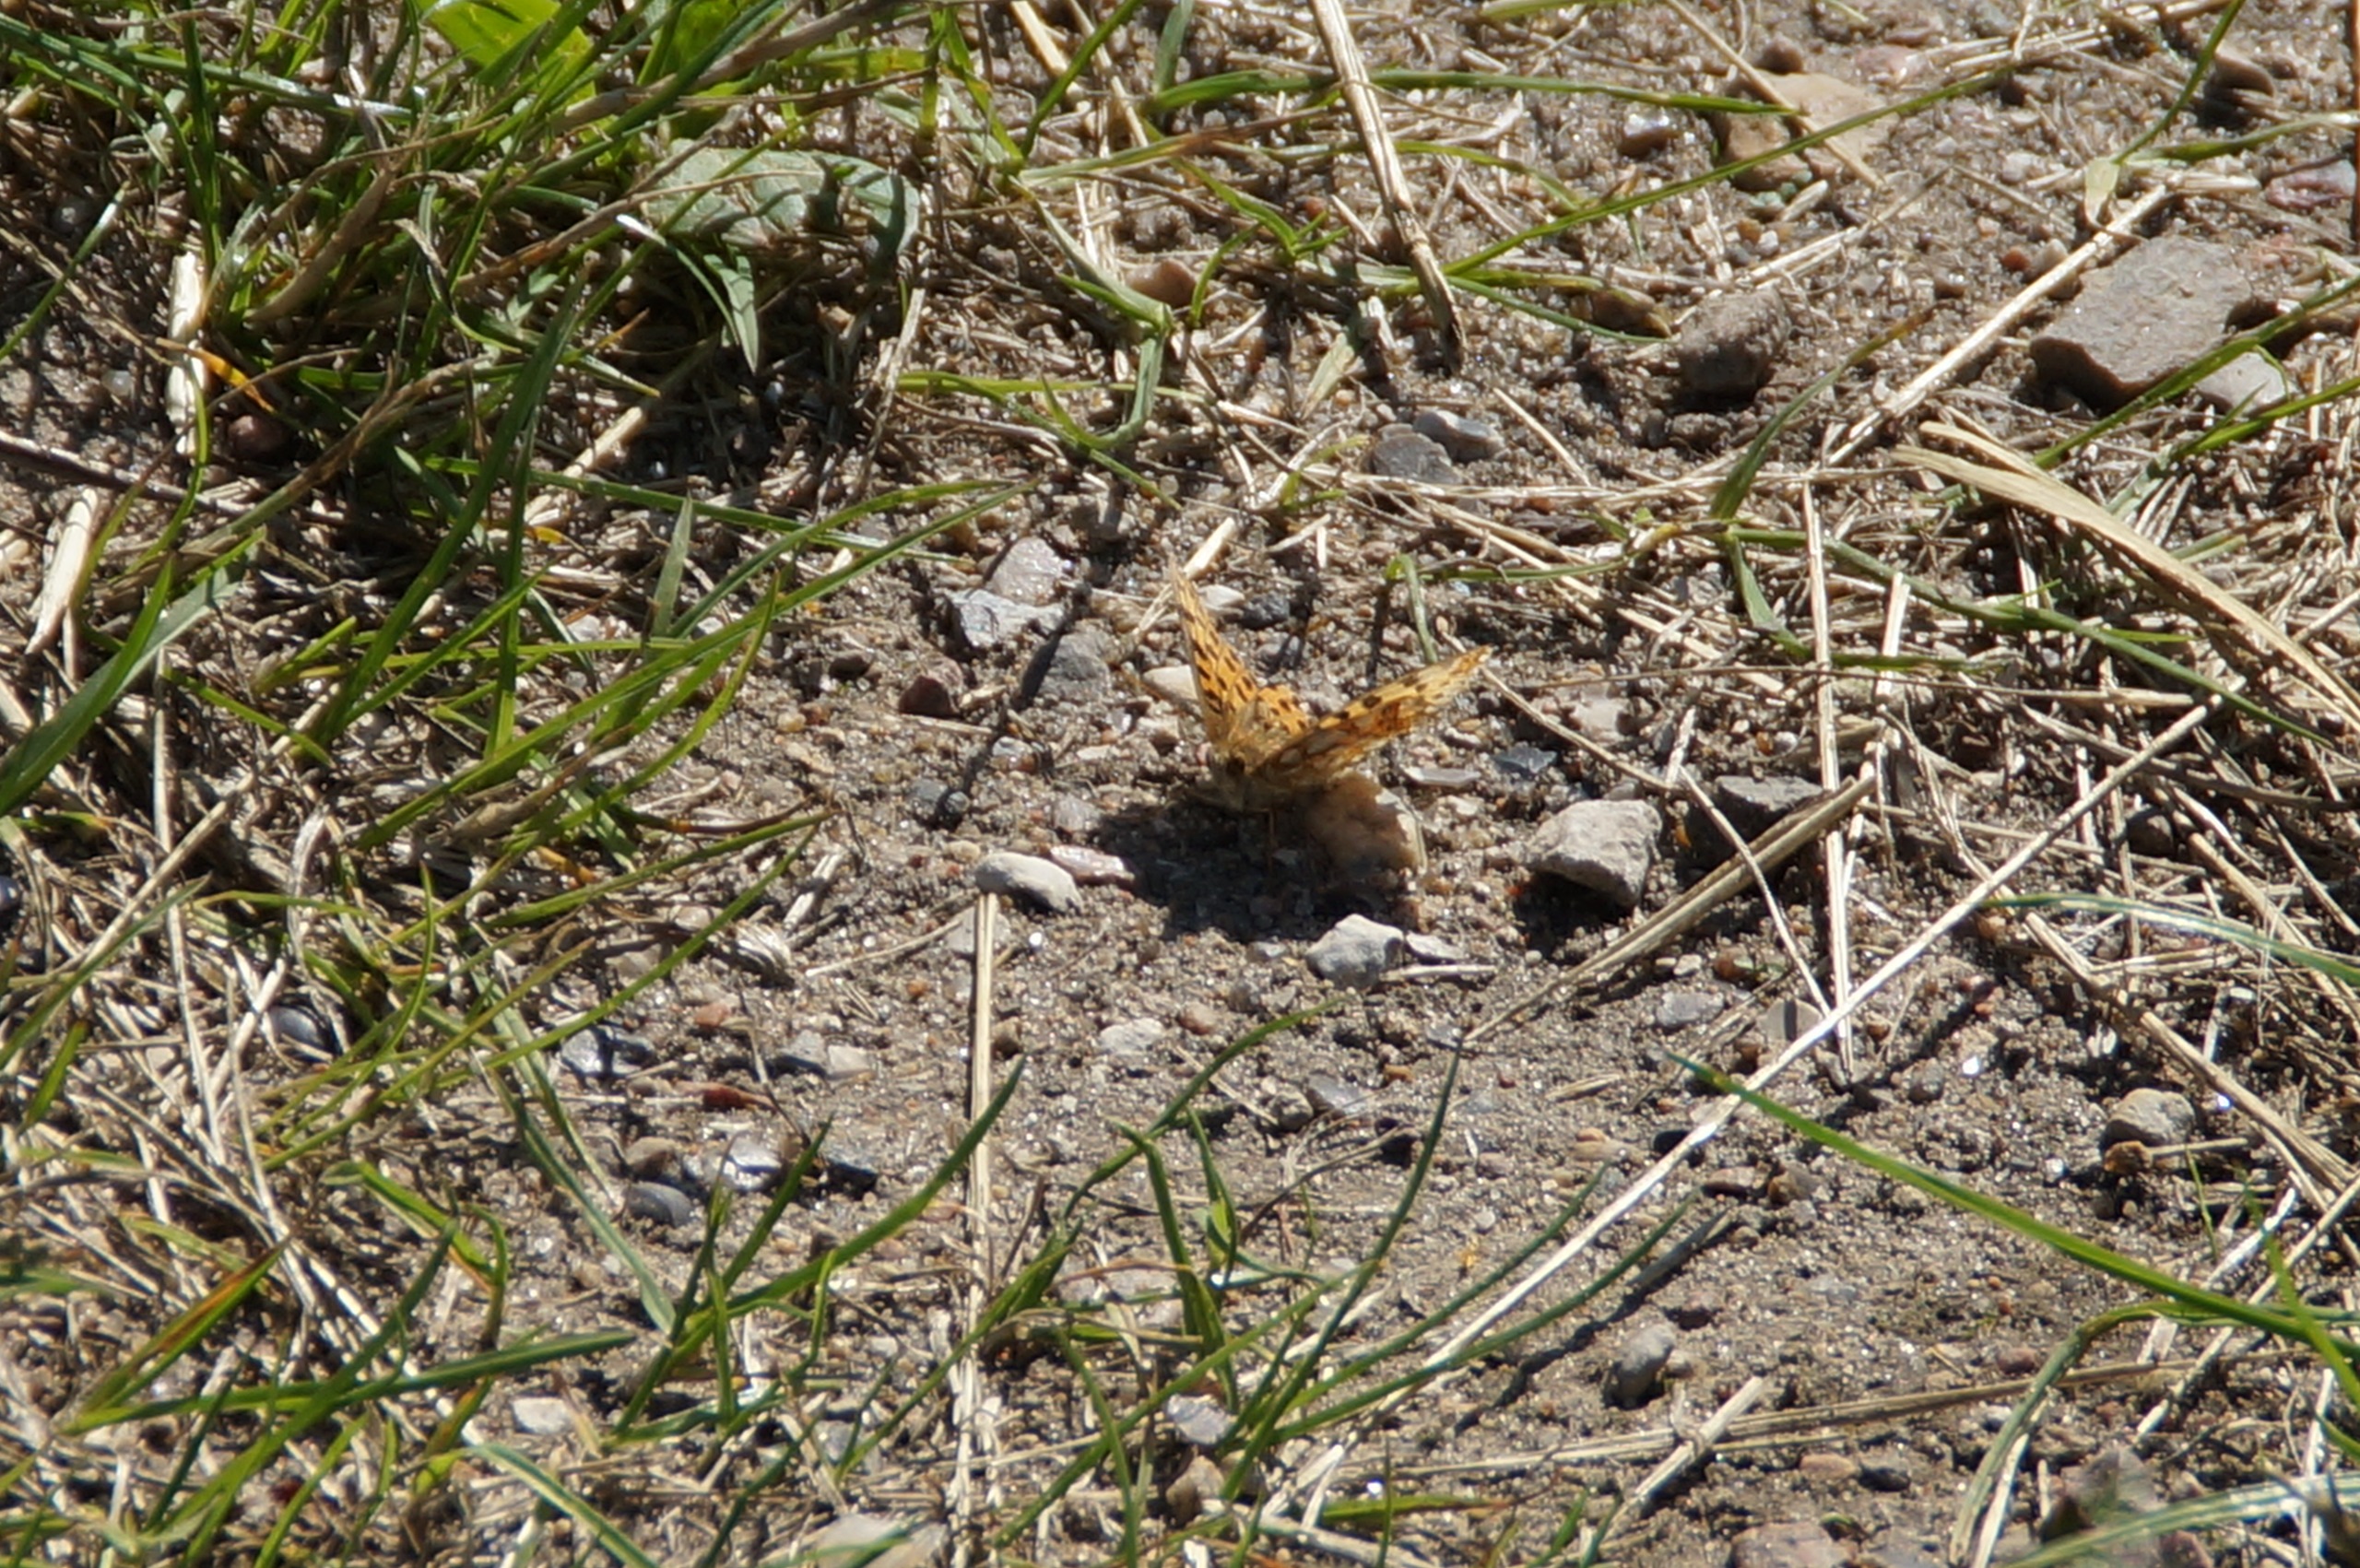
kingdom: Animalia
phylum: Arthropoda
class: Insecta
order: Lepidoptera
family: Nymphalidae
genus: Issoria
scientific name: Issoria lathonia
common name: Storplettet perlemorsommerfugl
